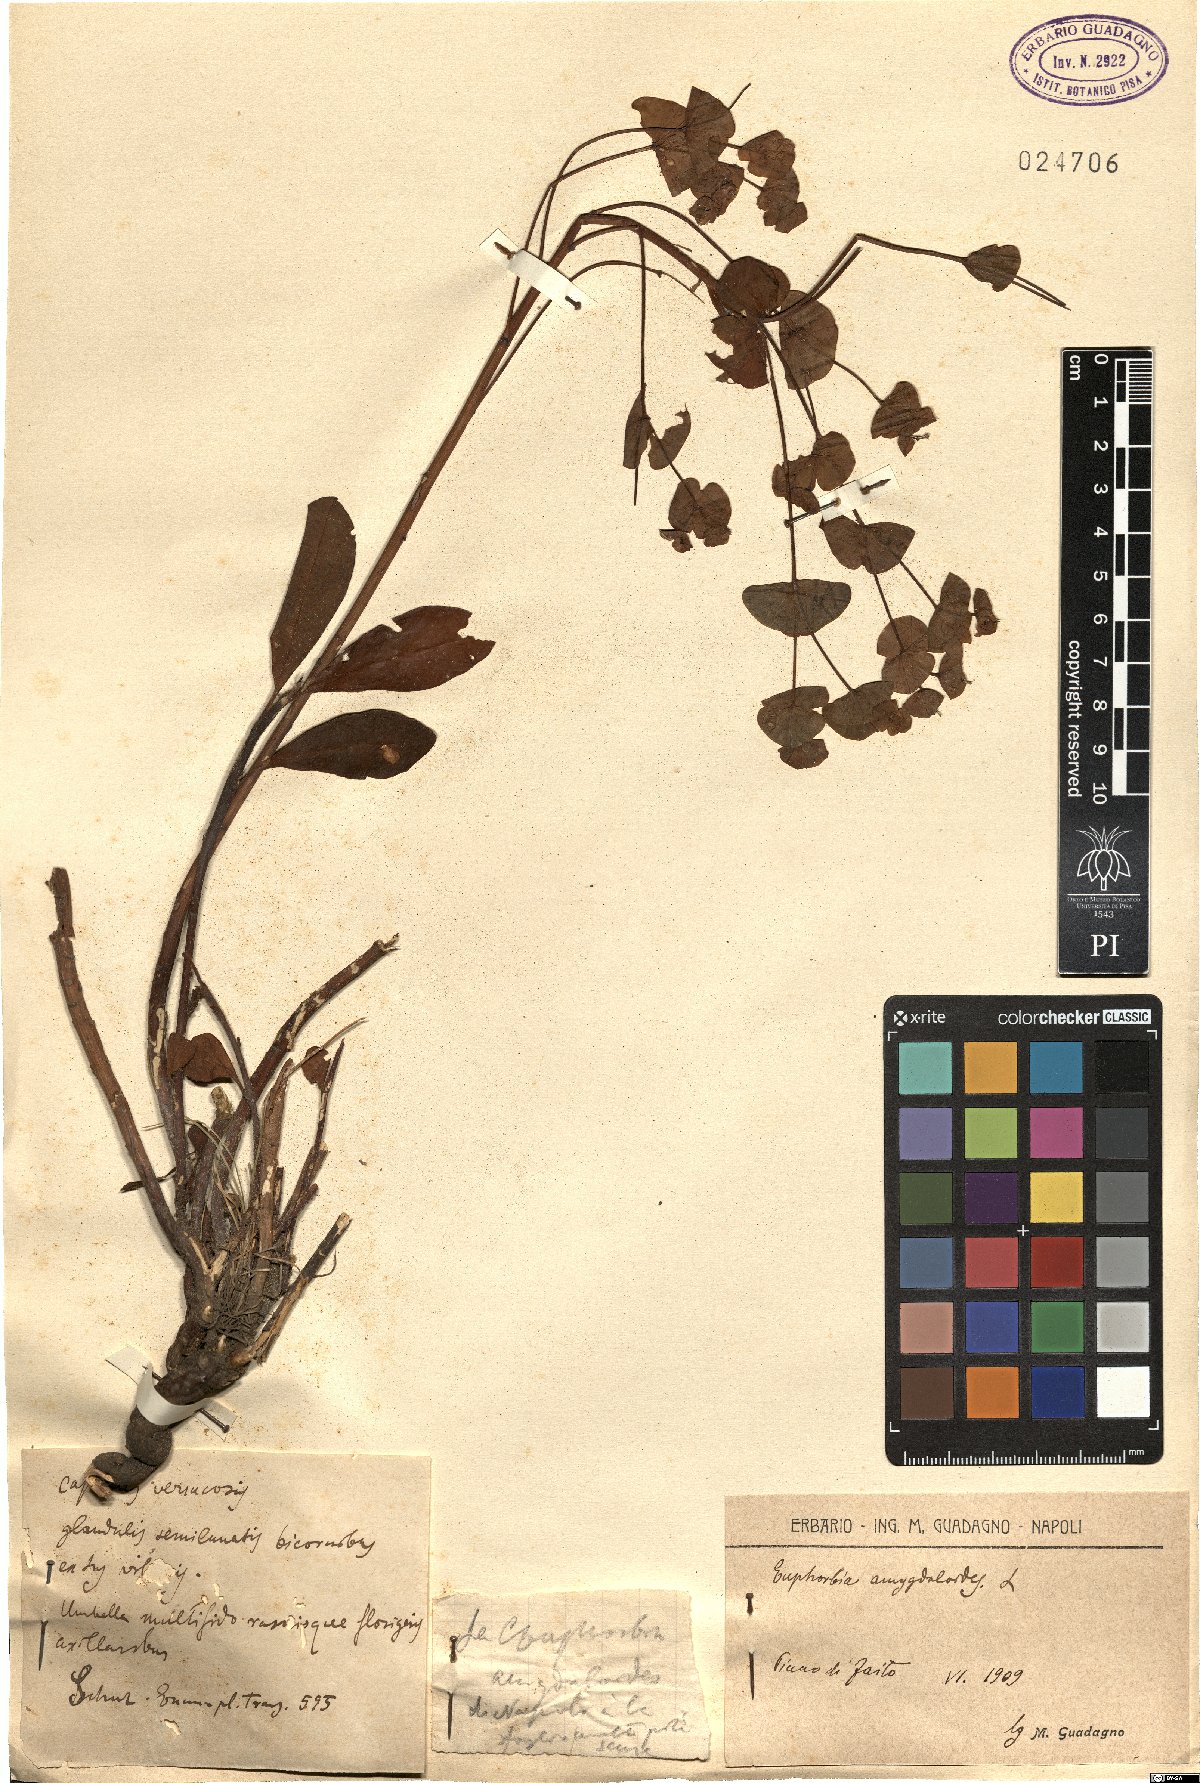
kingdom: Plantae
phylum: Tracheophyta
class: Magnoliopsida
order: Malpighiales
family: Euphorbiaceae
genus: Euphorbia
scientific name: Euphorbia amygdaloides
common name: Wood spurge
